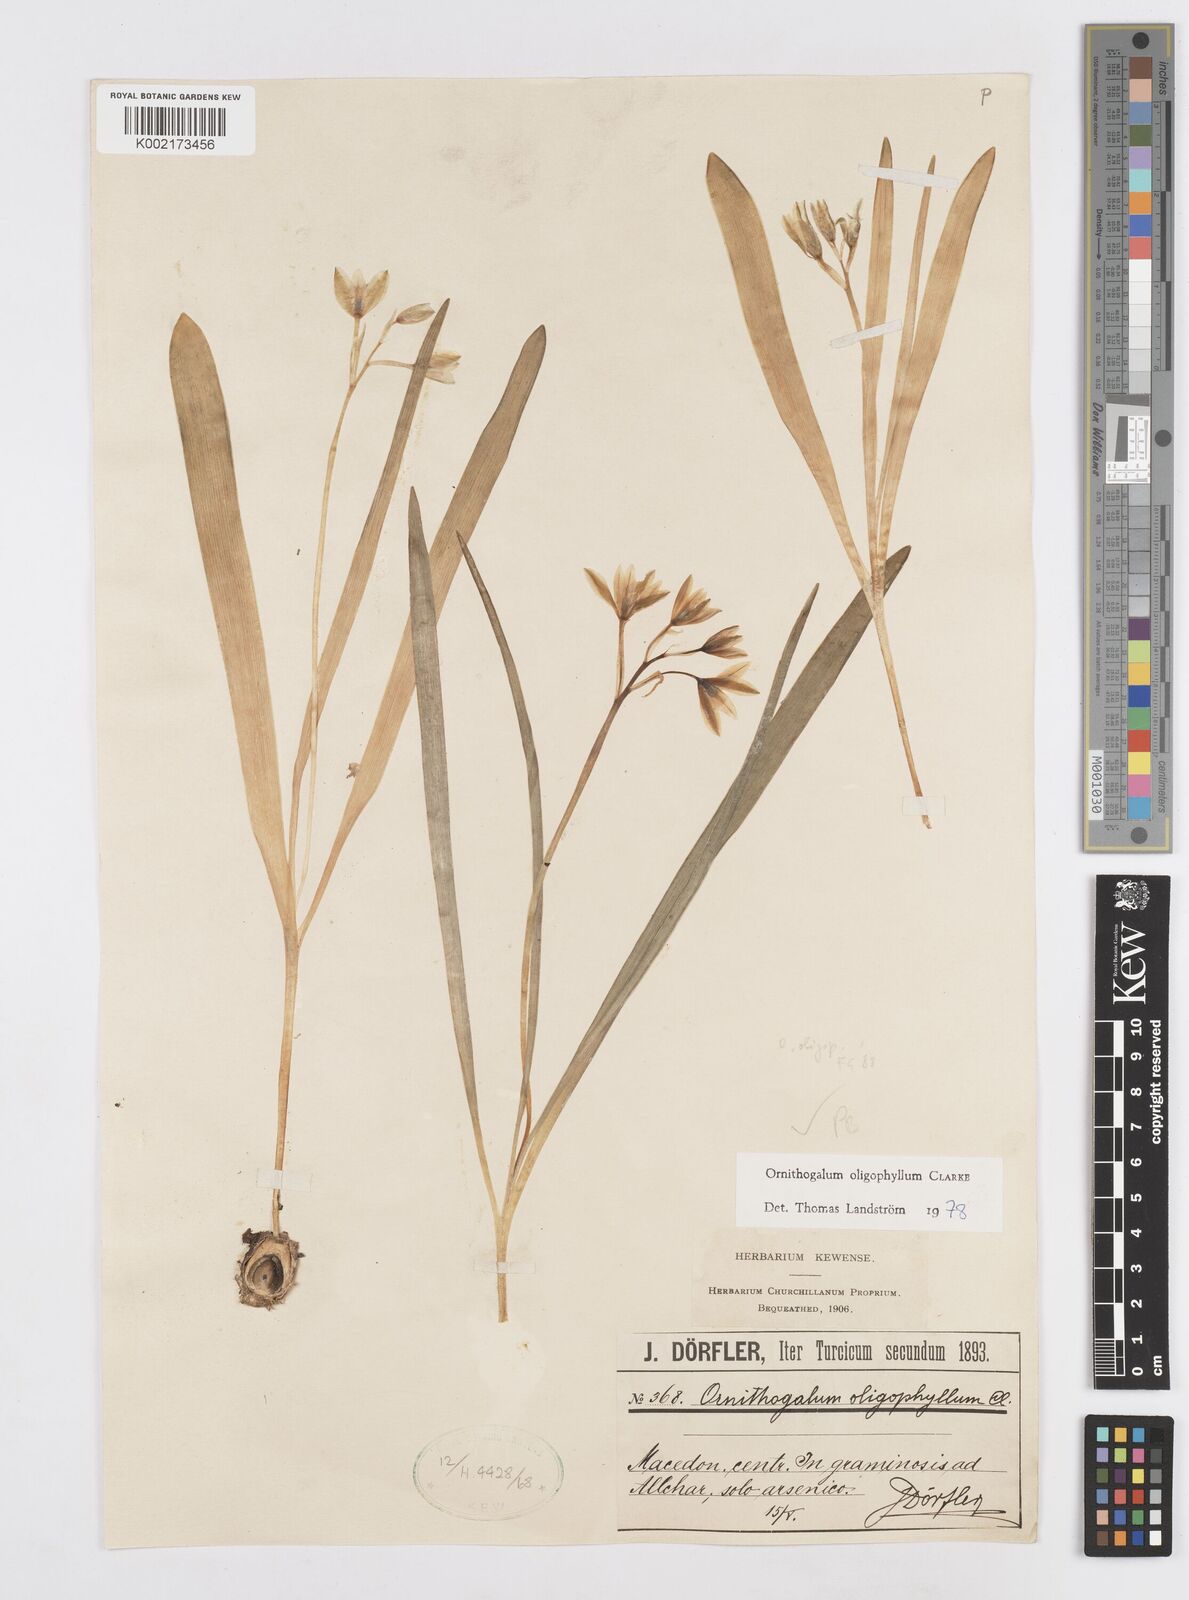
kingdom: Plantae
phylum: Tracheophyta
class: Liliopsida
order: Asparagales
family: Asparagaceae
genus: Ornithogalum
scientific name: Ornithogalum oligophyllum
